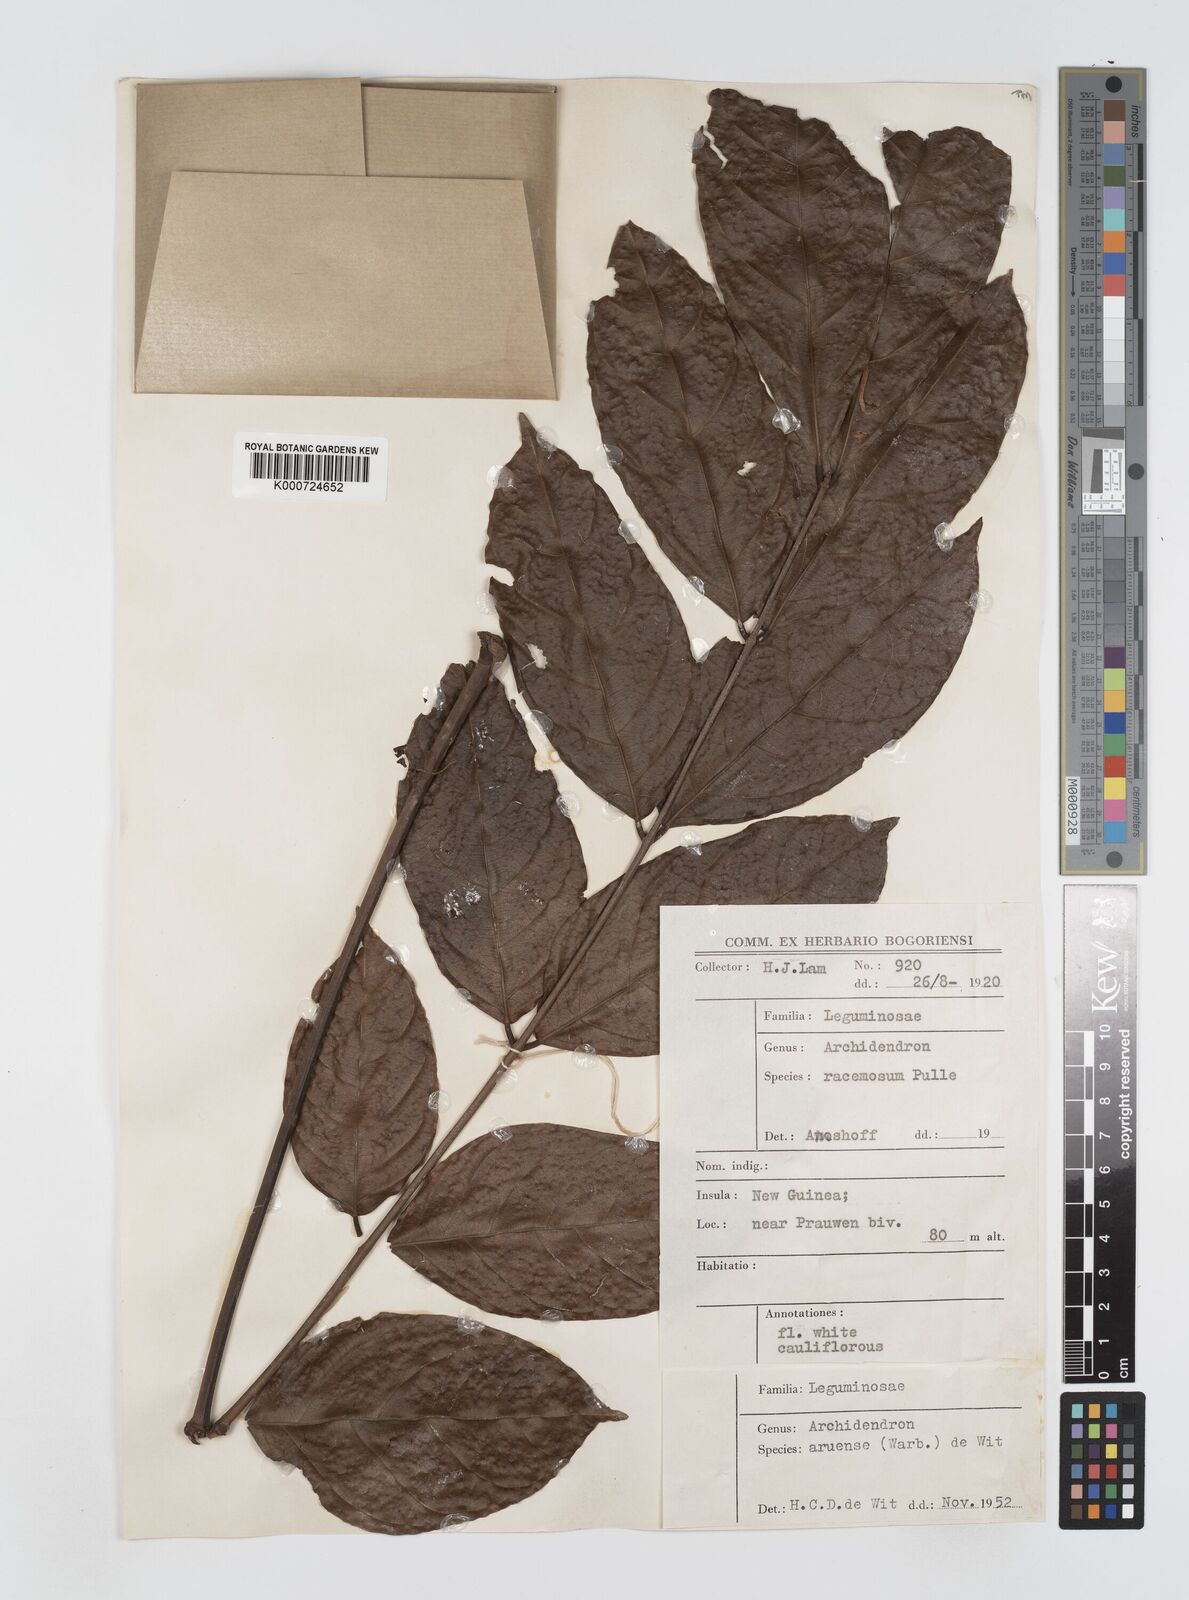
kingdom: Plantae
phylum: Tracheophyta
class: Magnoliopsida
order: Fabales
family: Fabaceae
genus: Archidendron
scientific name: Archidendron aruense
